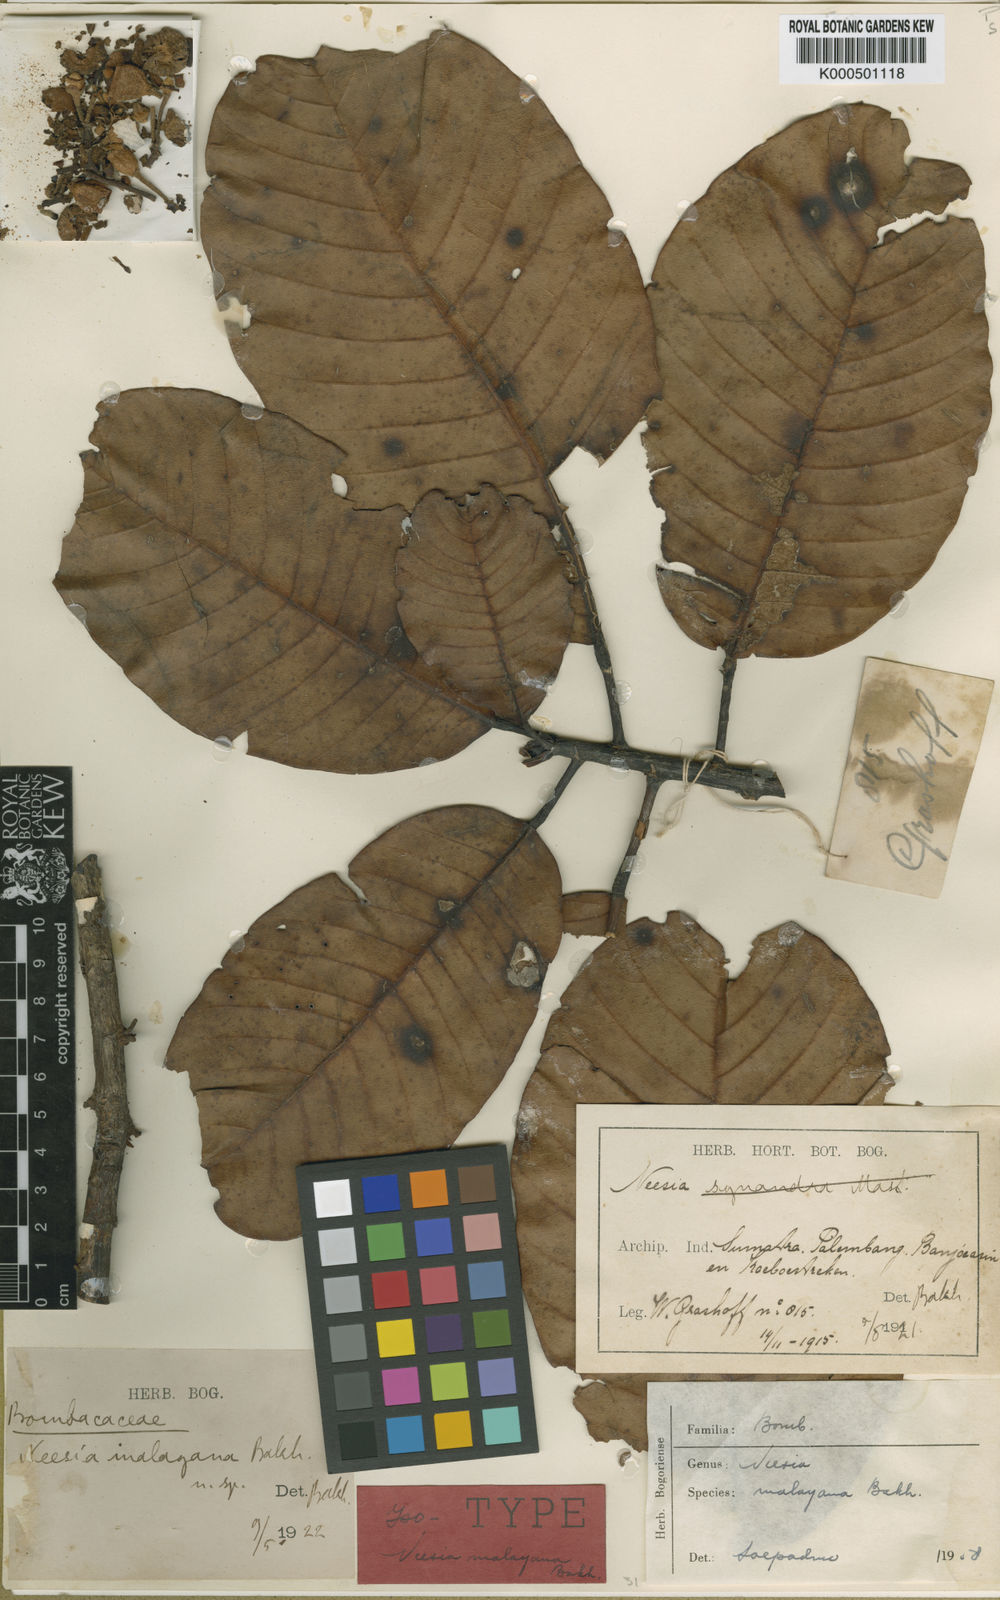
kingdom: Plantae
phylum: Tracheophyta
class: Magnoliopsida
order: Malvales
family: Malvaceae
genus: Neesia
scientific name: Neesia malayana
